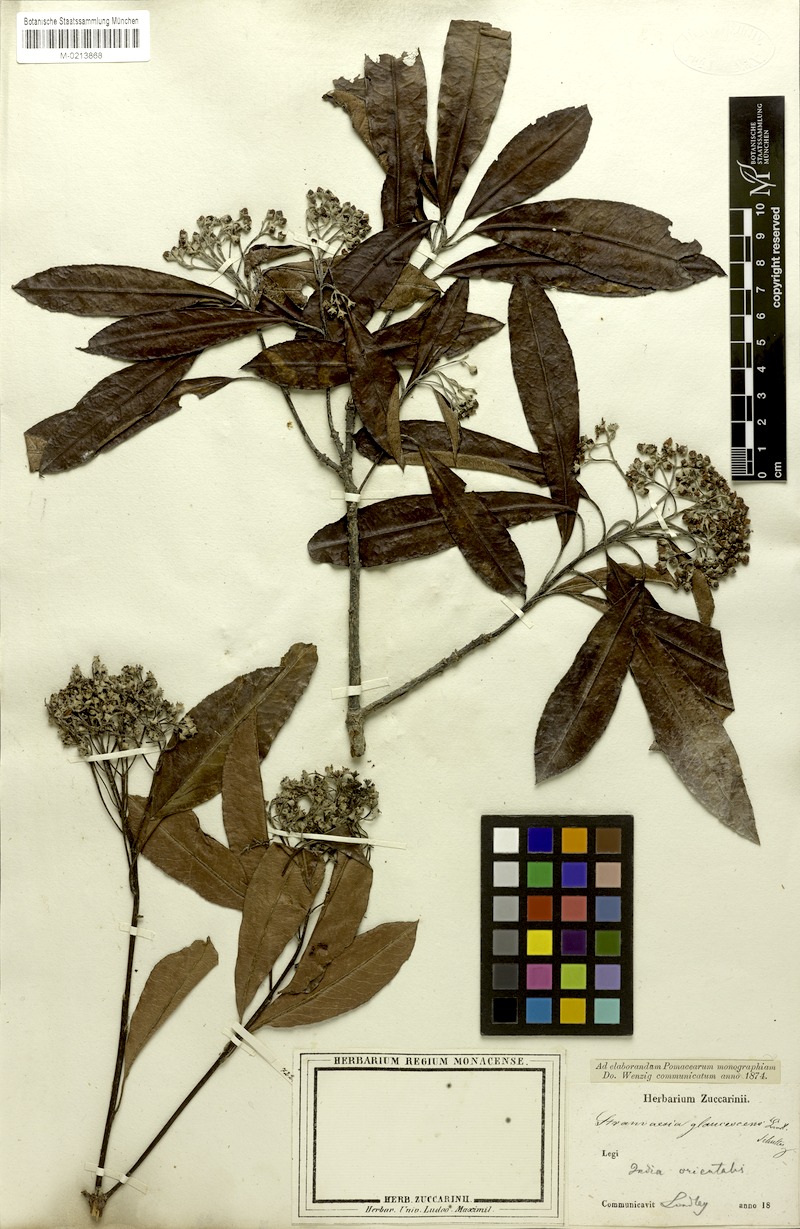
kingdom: Plantae
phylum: Tracheophyta
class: Magnoliopsida
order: Rosales
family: Rosaceae
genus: Stranvaesia
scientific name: Stranvaesia nussia
